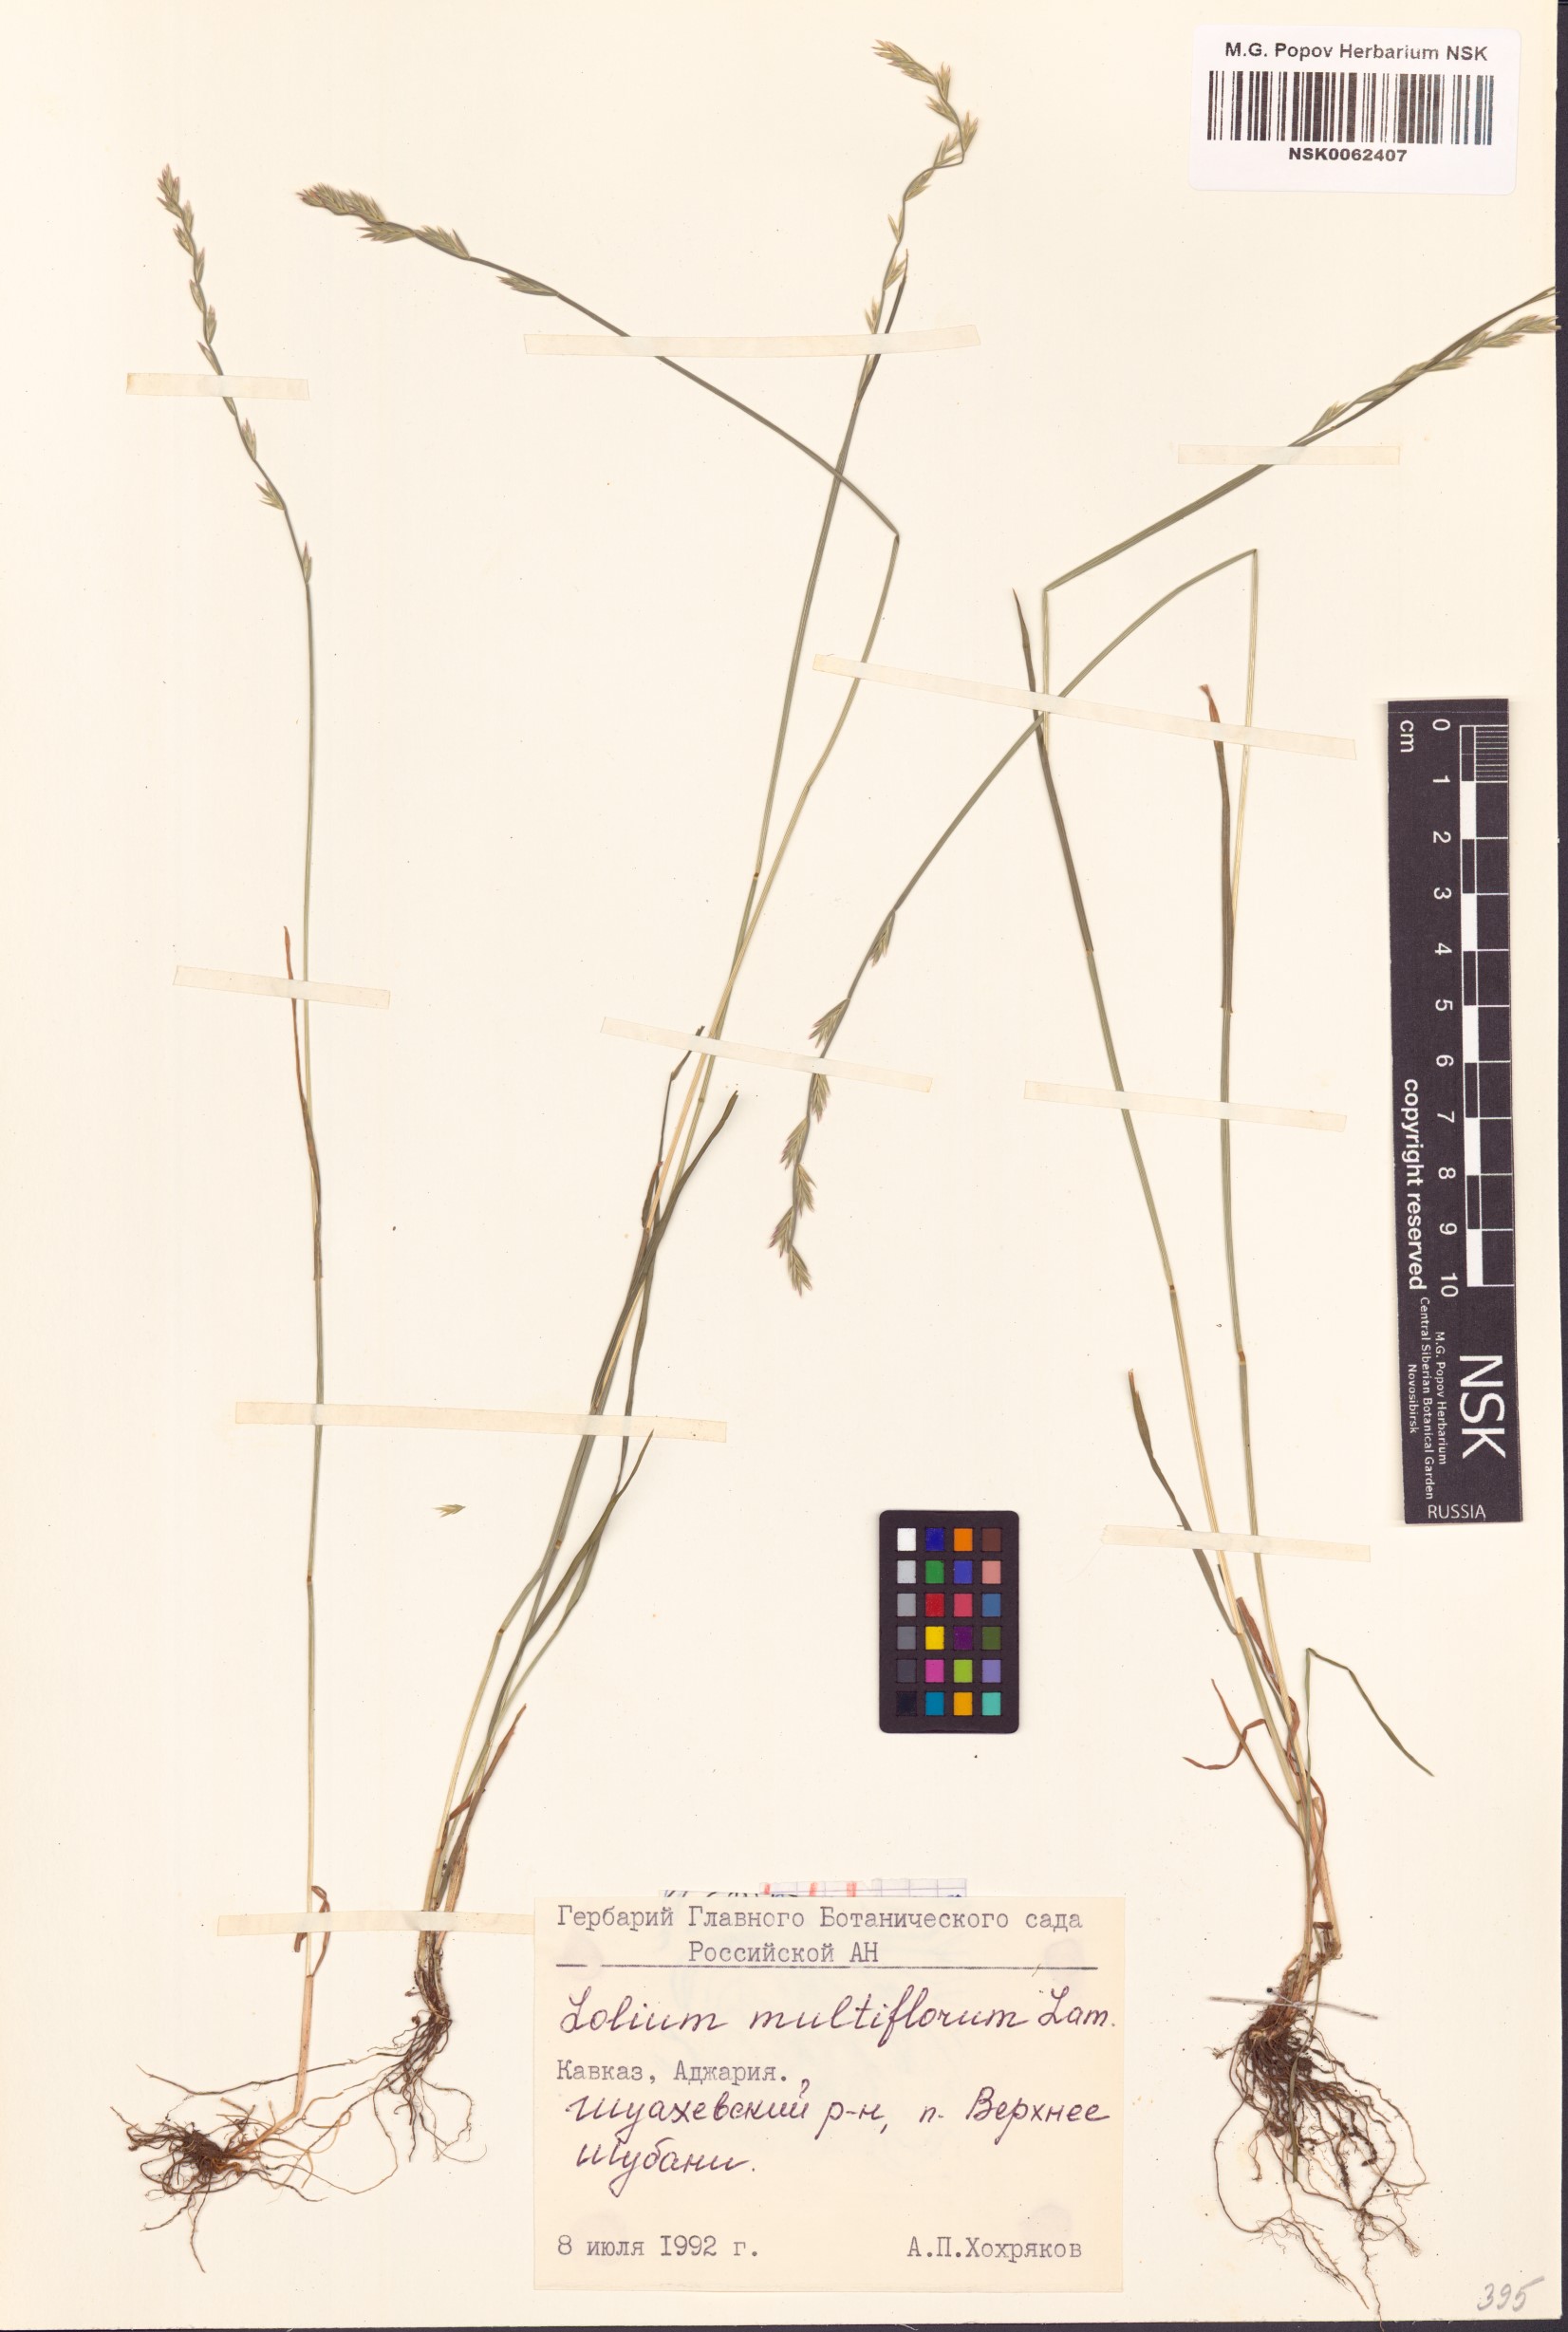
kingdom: Plantae
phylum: Tracheophyta
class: Liliopsida
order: Poales
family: Poaceae
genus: Lolium
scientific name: Lolium multiflorum
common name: Annual ryegrass
